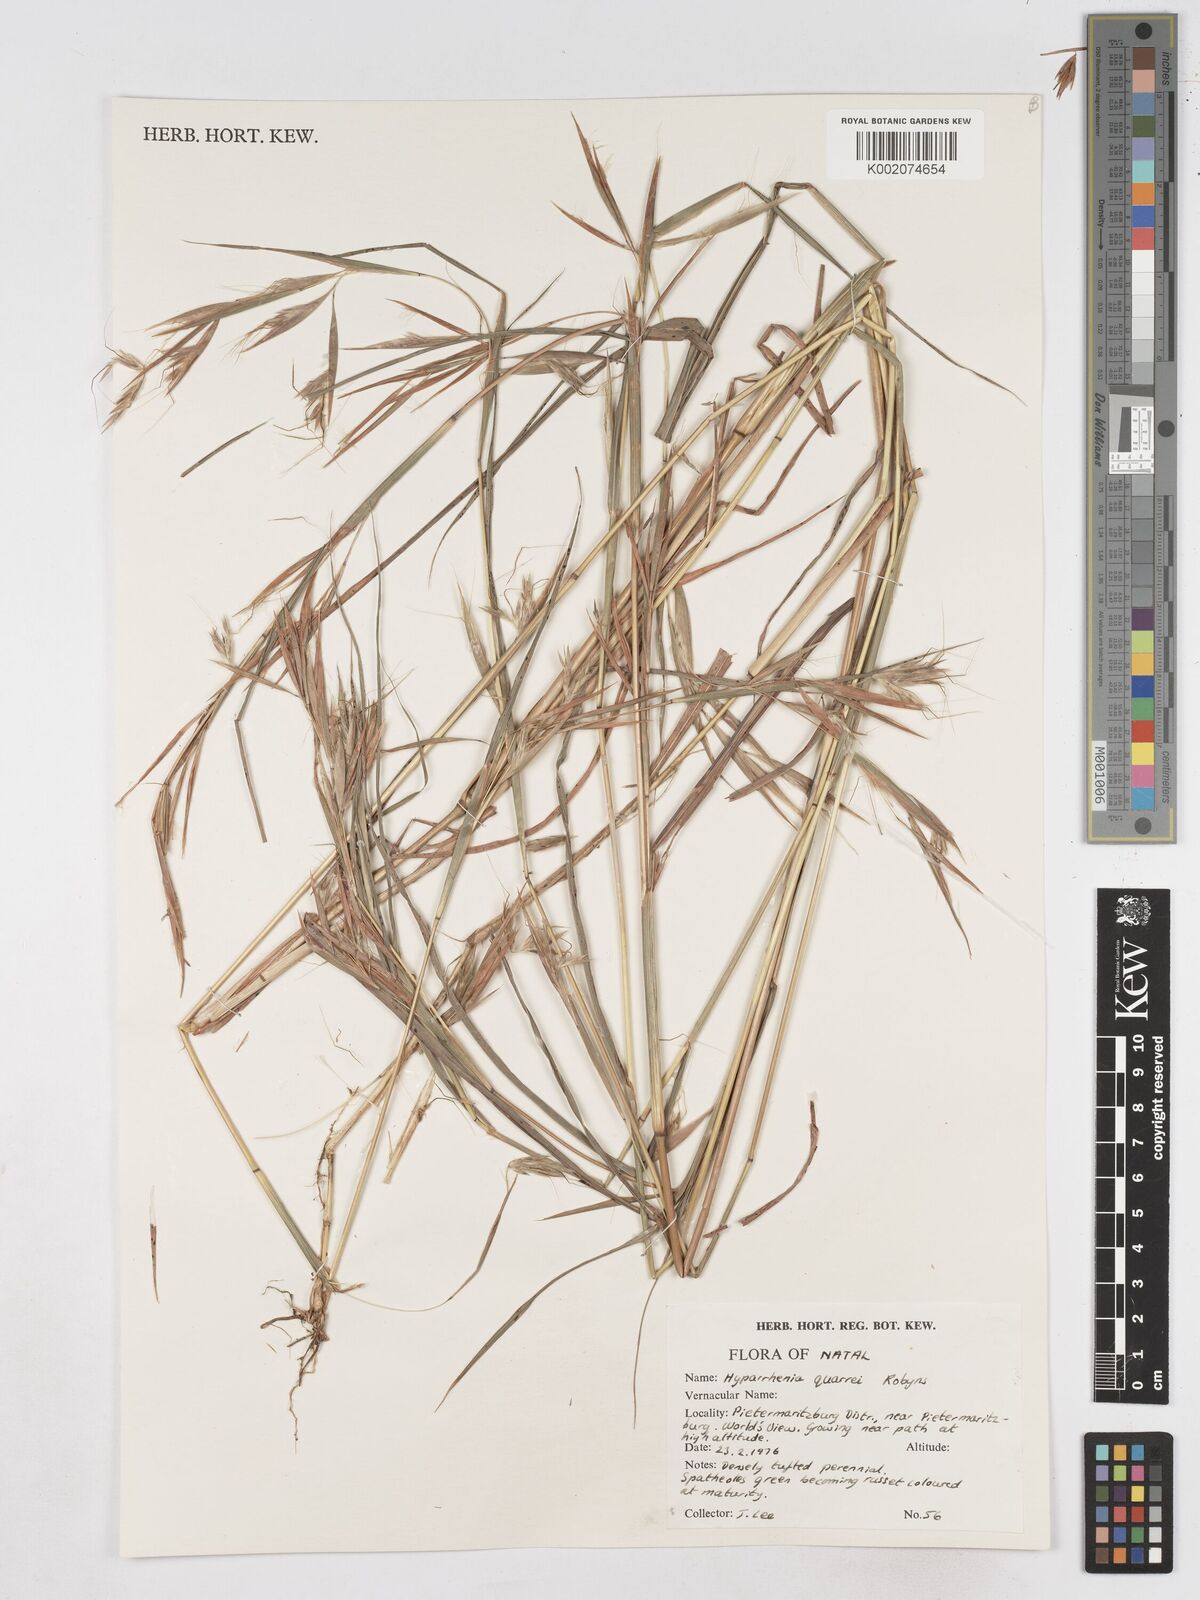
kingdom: Plantae
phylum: Tracheophyta
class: Liliopsida
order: Poales
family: Poaceae
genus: Hyparrhenia
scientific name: Hyparrhenia quarrei
